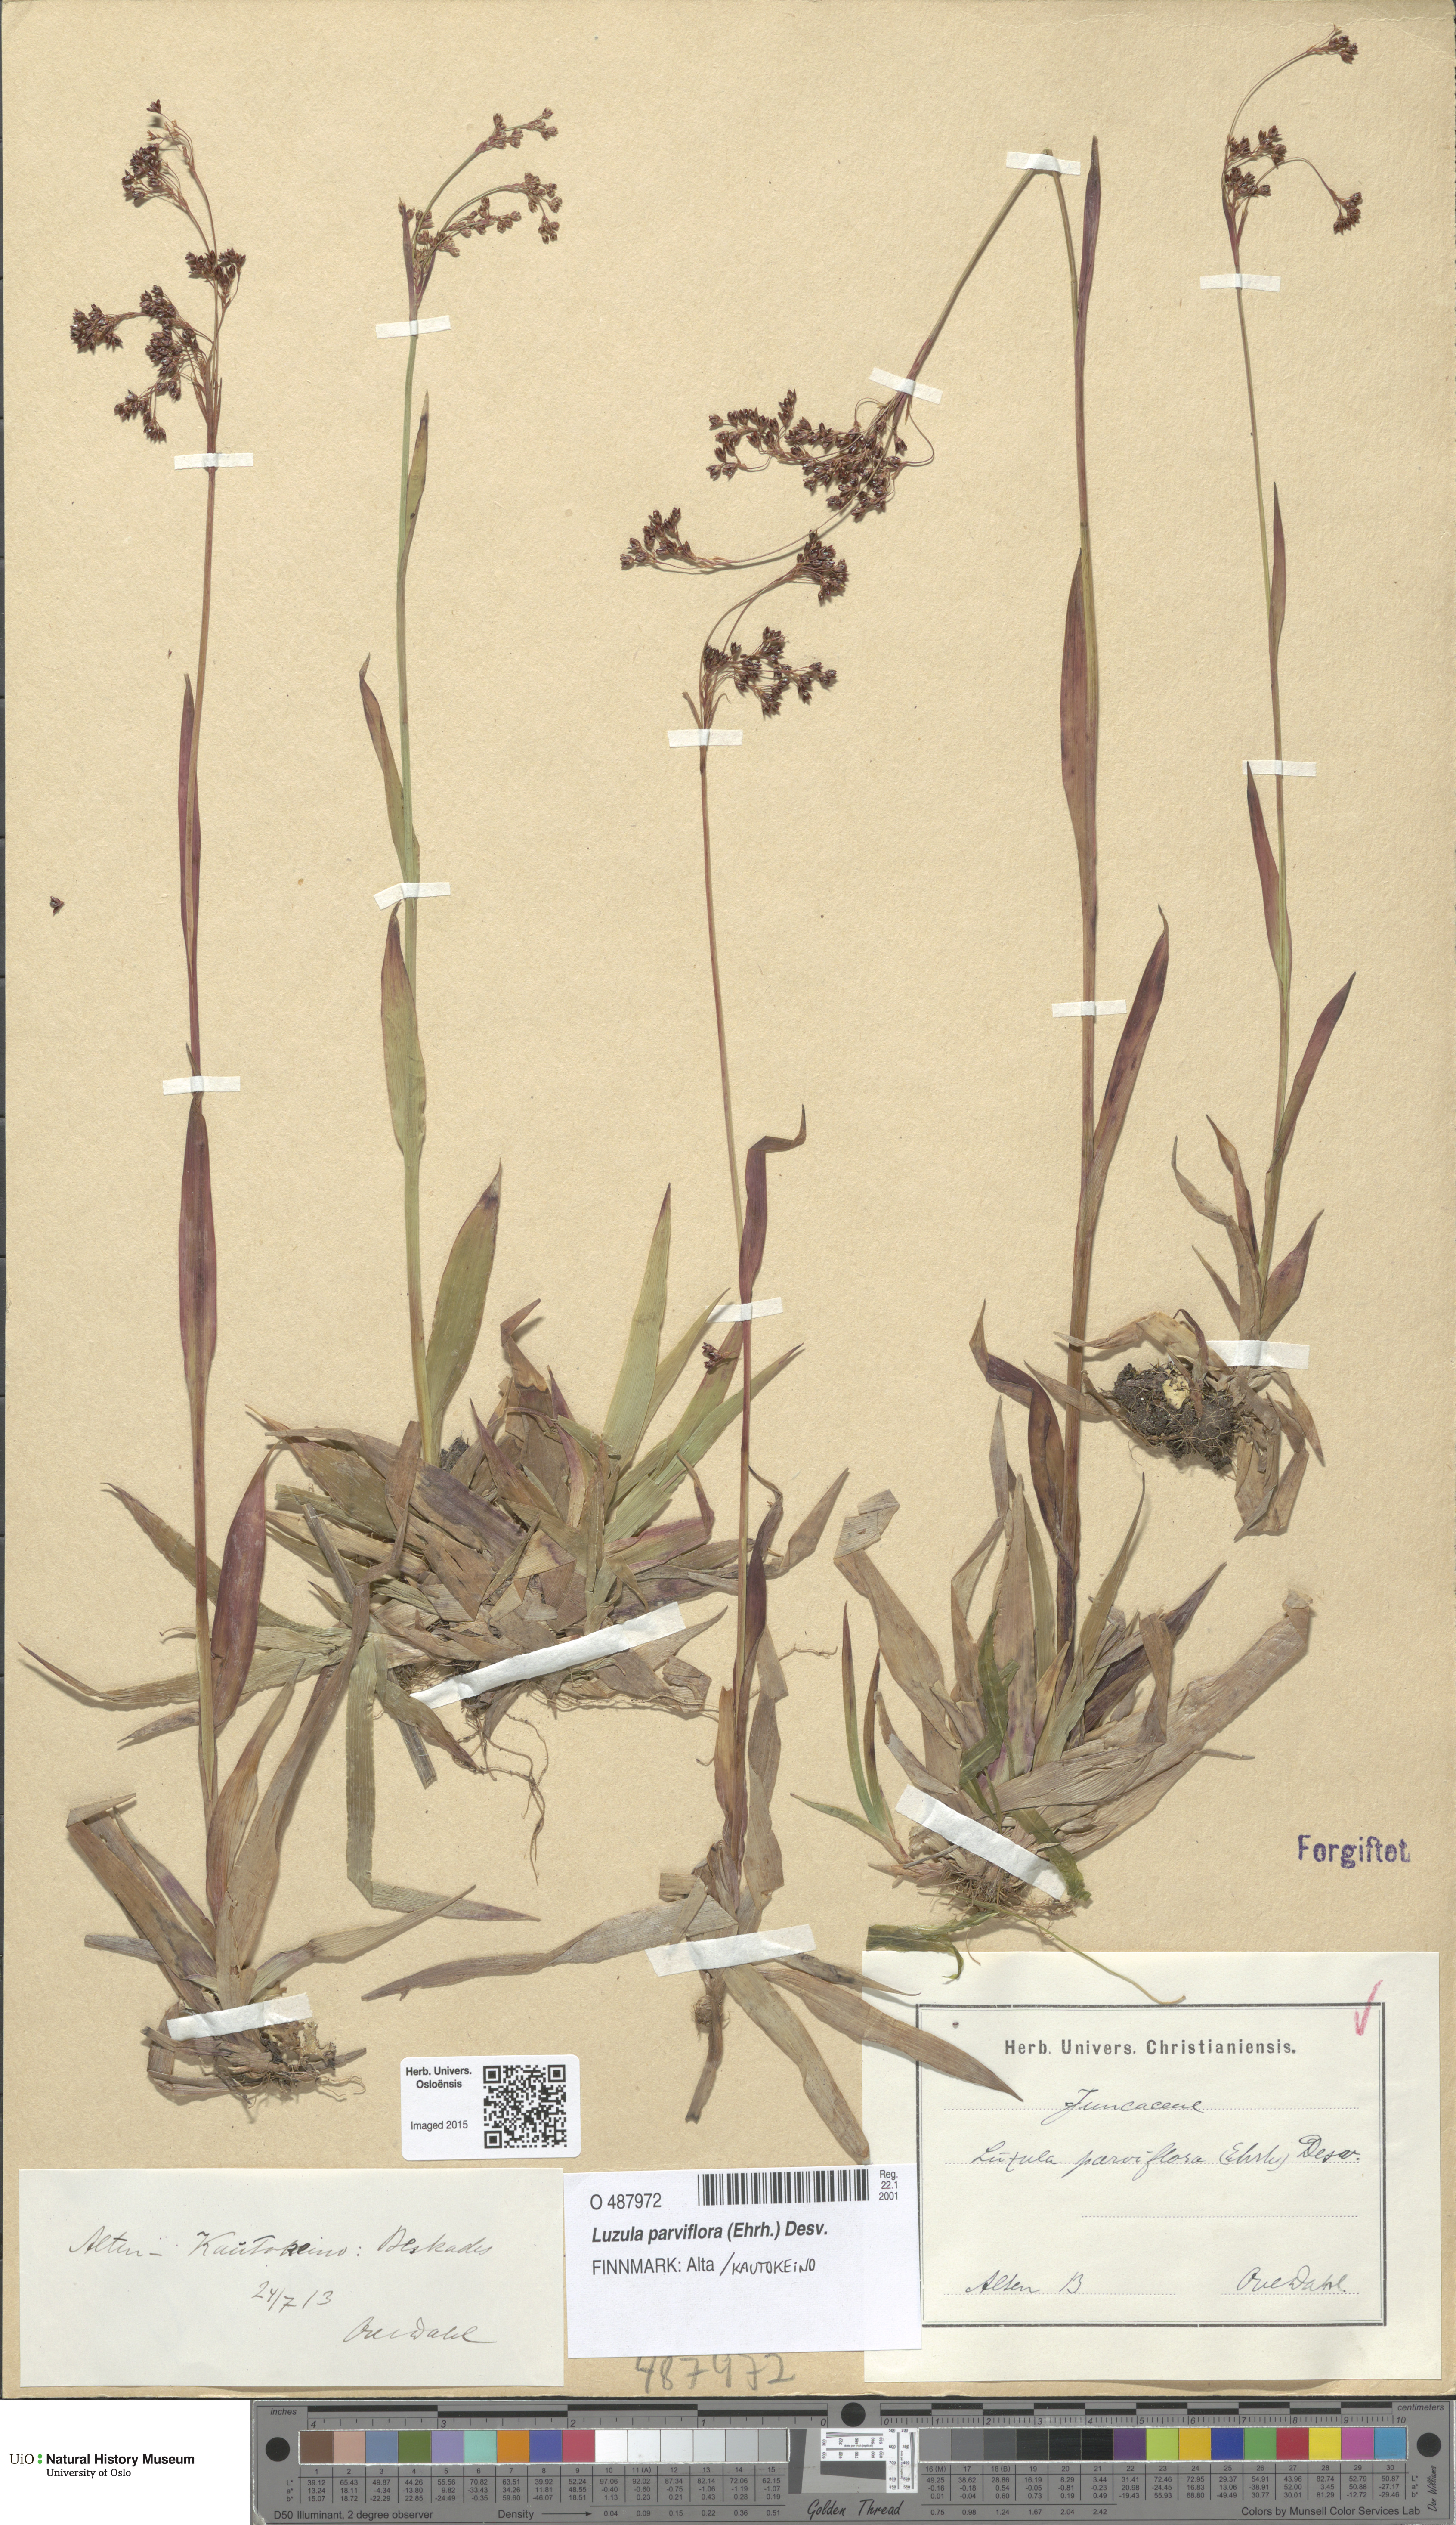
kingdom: Plantae
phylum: Tracheophyta
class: Liliopsida
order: Poales
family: Juncaceae
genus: Luzula
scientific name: Luzula parviflora
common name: Millet woodrush
